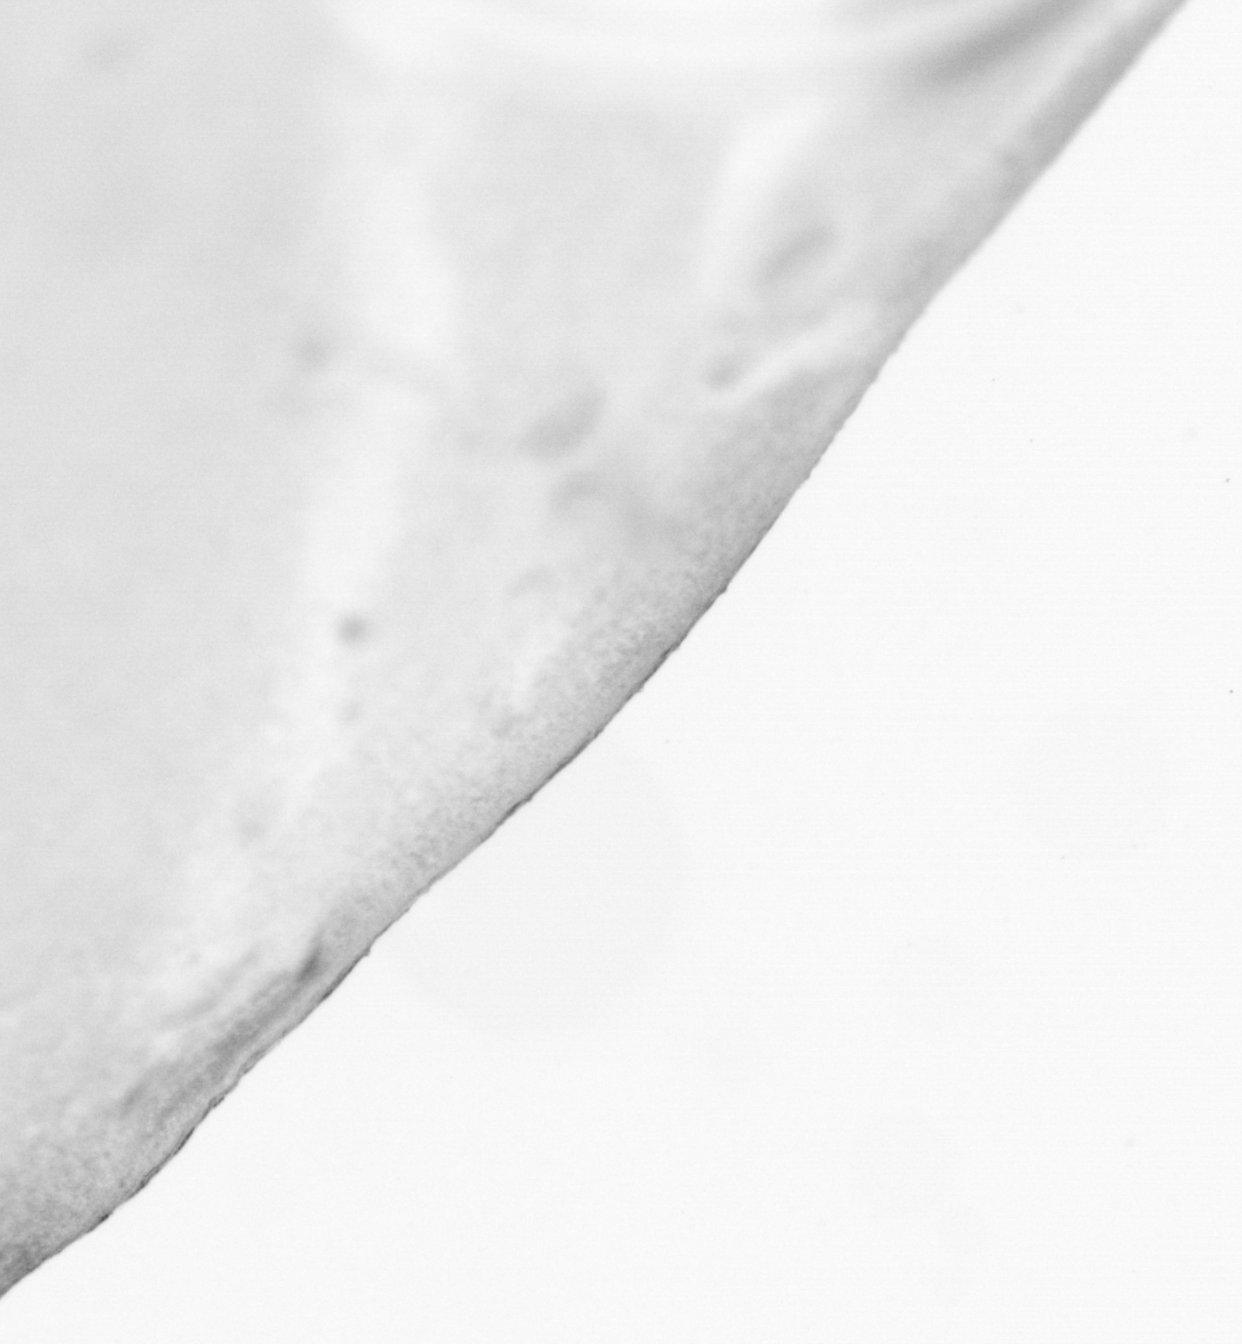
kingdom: Animalia
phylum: Chordata
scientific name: Chordata
